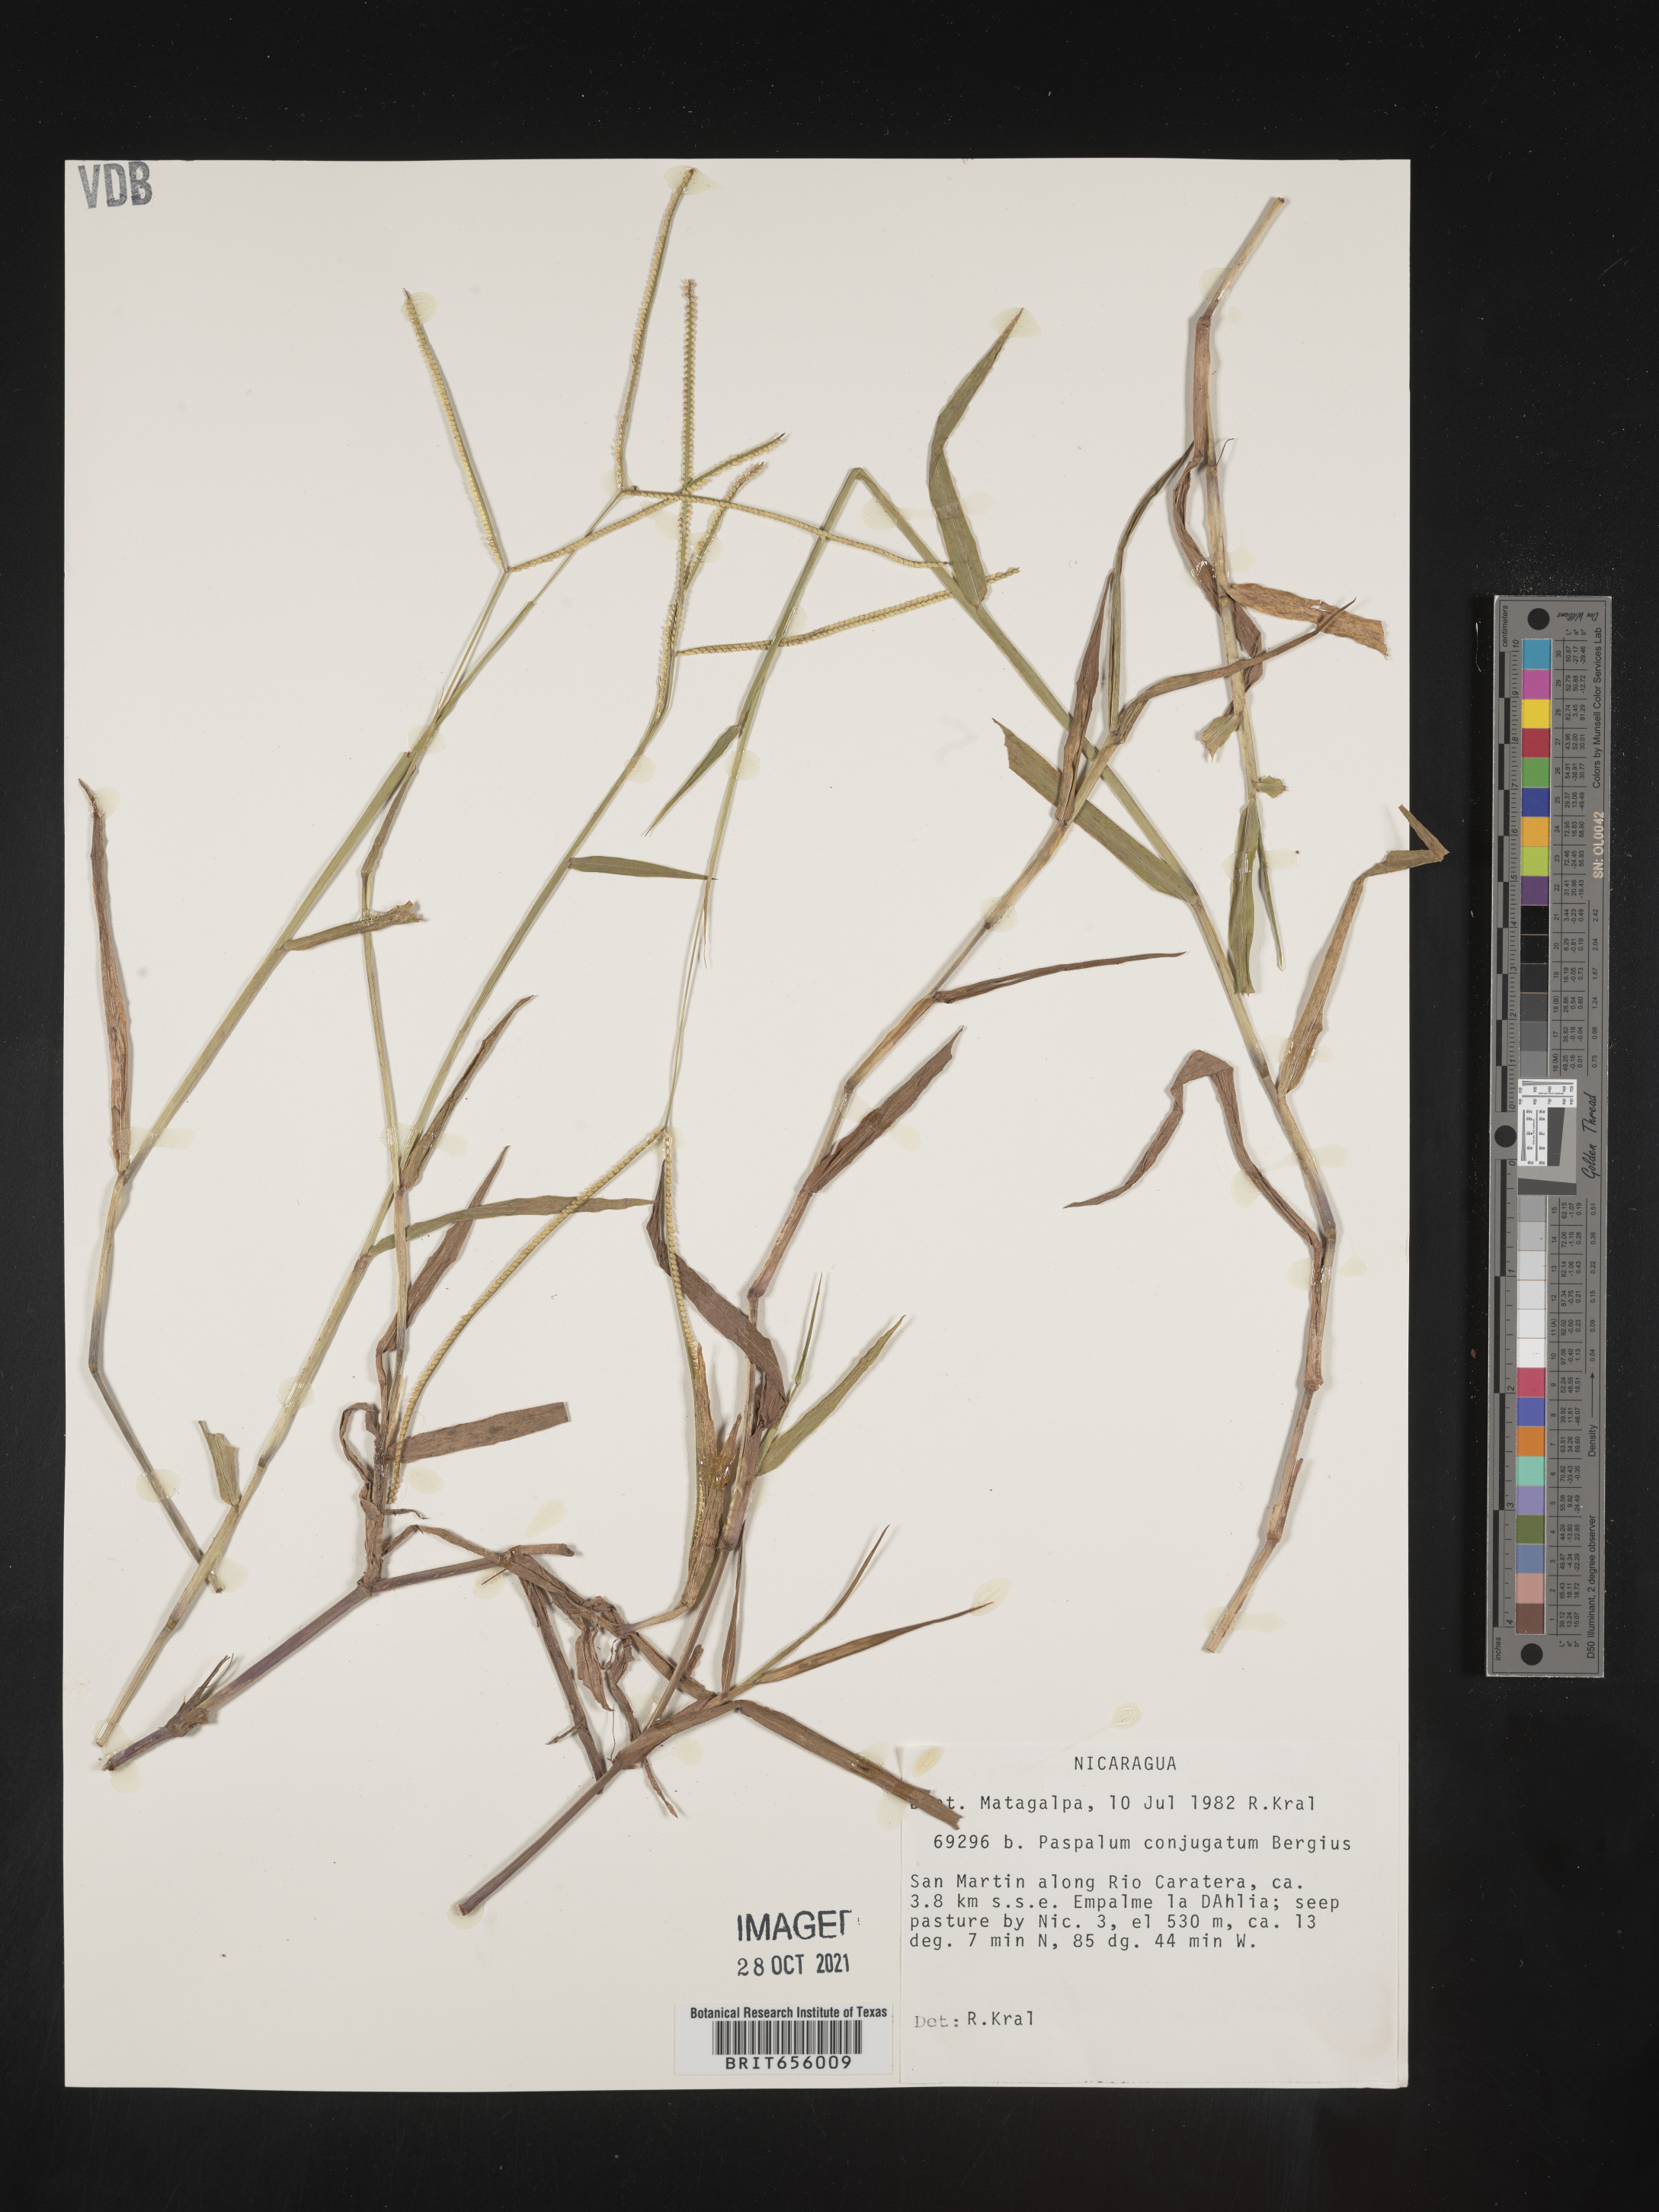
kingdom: Plantae
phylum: Tracheophyta
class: Liliopsida
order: Poales
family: Poaceae
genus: Paspalum
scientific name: Paspalum
